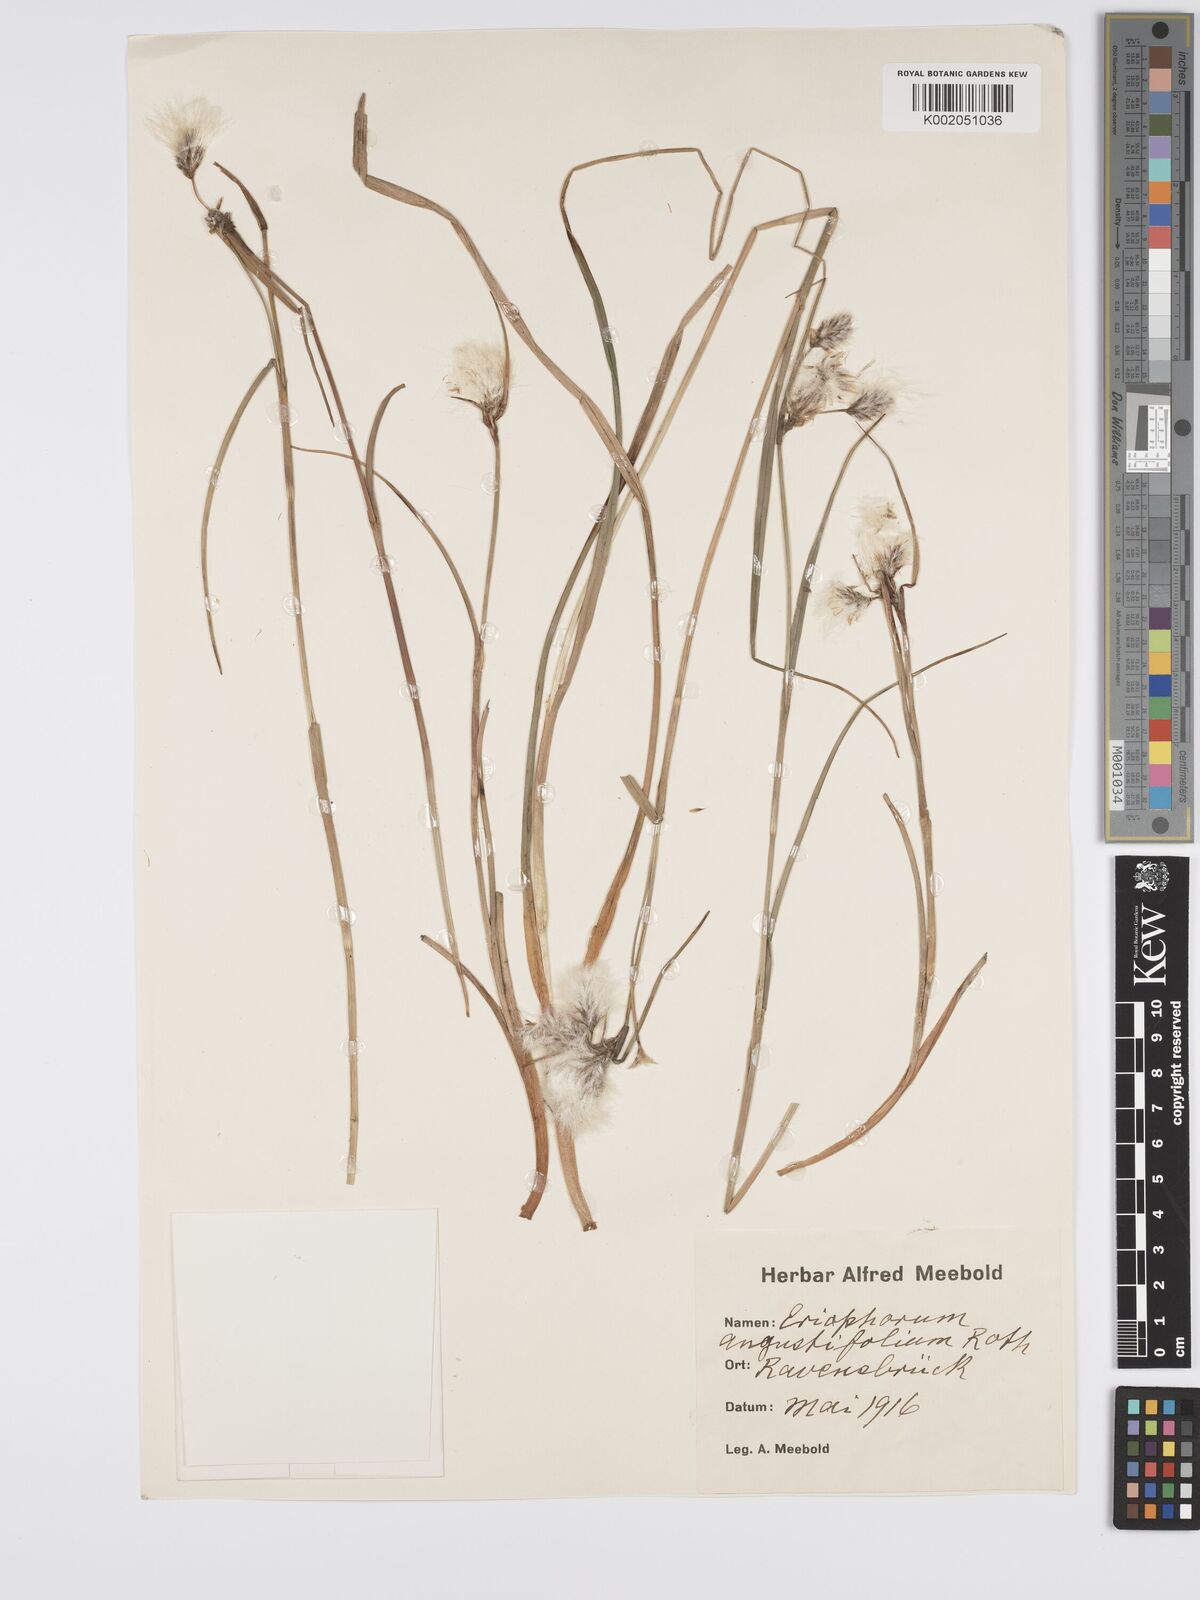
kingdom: Plantae
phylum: Tracheophyta
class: Liliopsida
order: Poales
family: Cyperaceae
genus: Eriophorum
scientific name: Eriophorum angustifolium
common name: Common cottongrass
